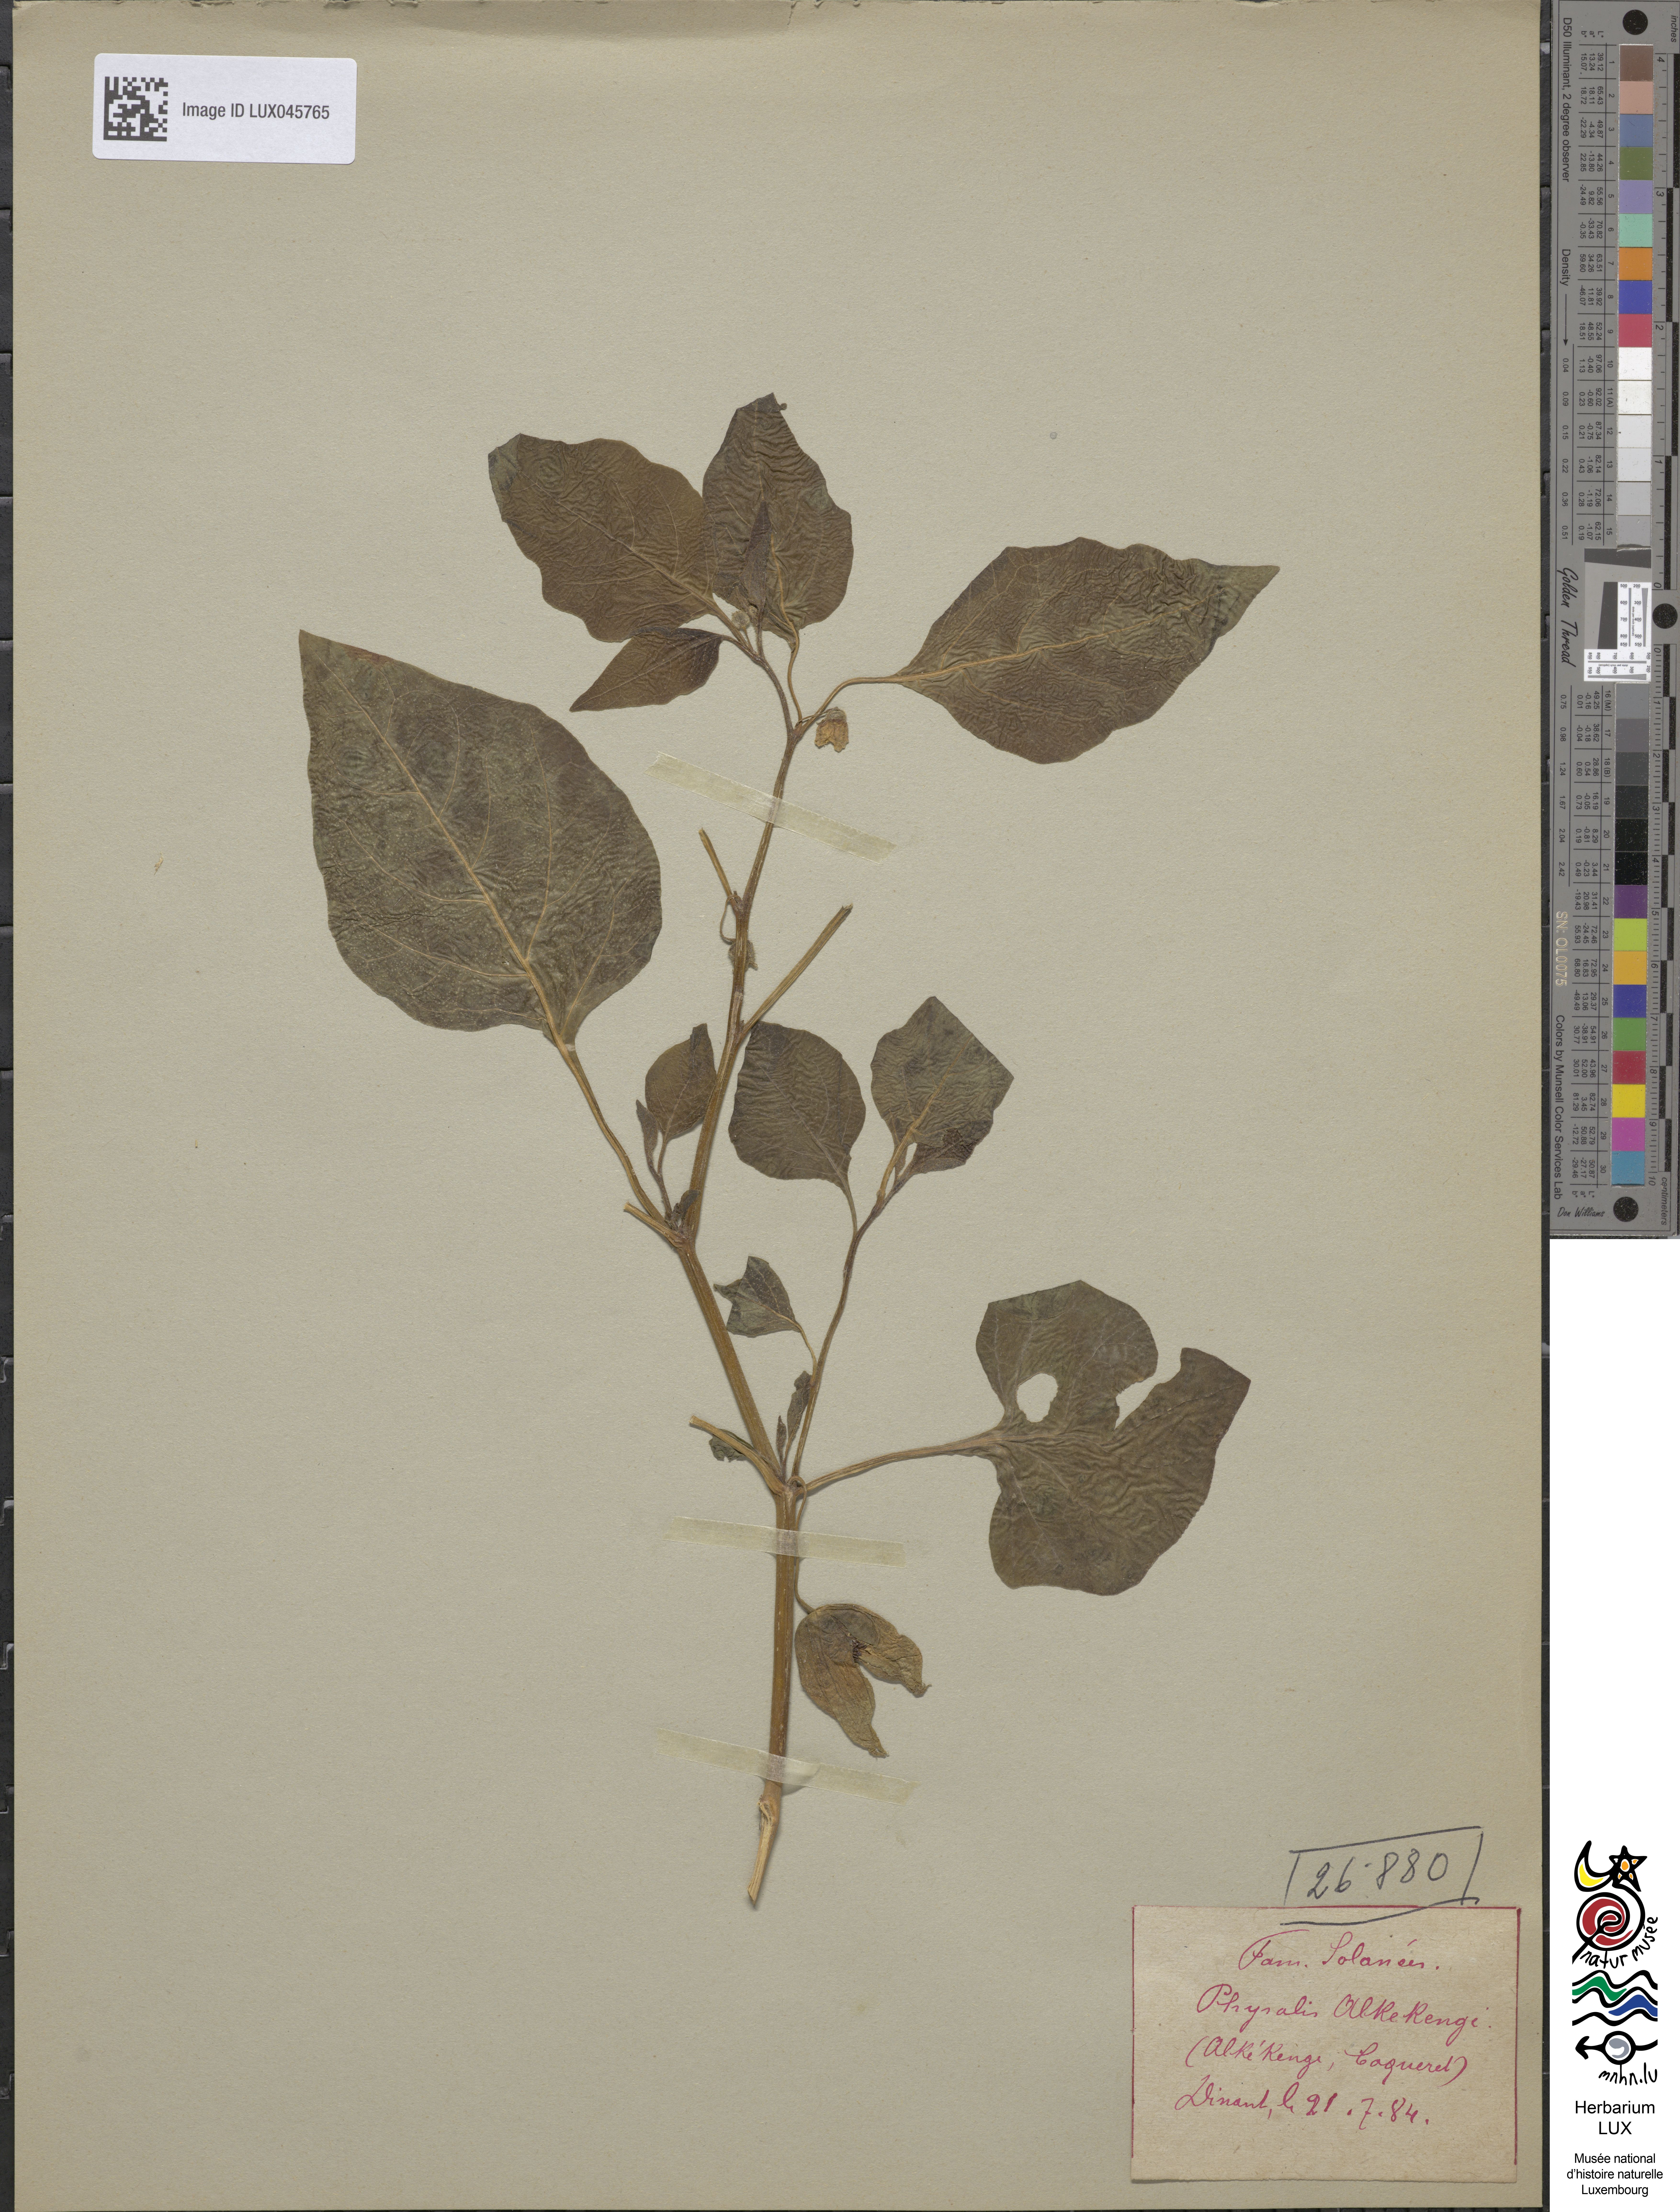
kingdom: Plantae
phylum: Tracheophyta
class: Magnoliopsida
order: Solanales
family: Solanaceae
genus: Alkekengi
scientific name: Alkekengi officinarum
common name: Japanese-lantern
